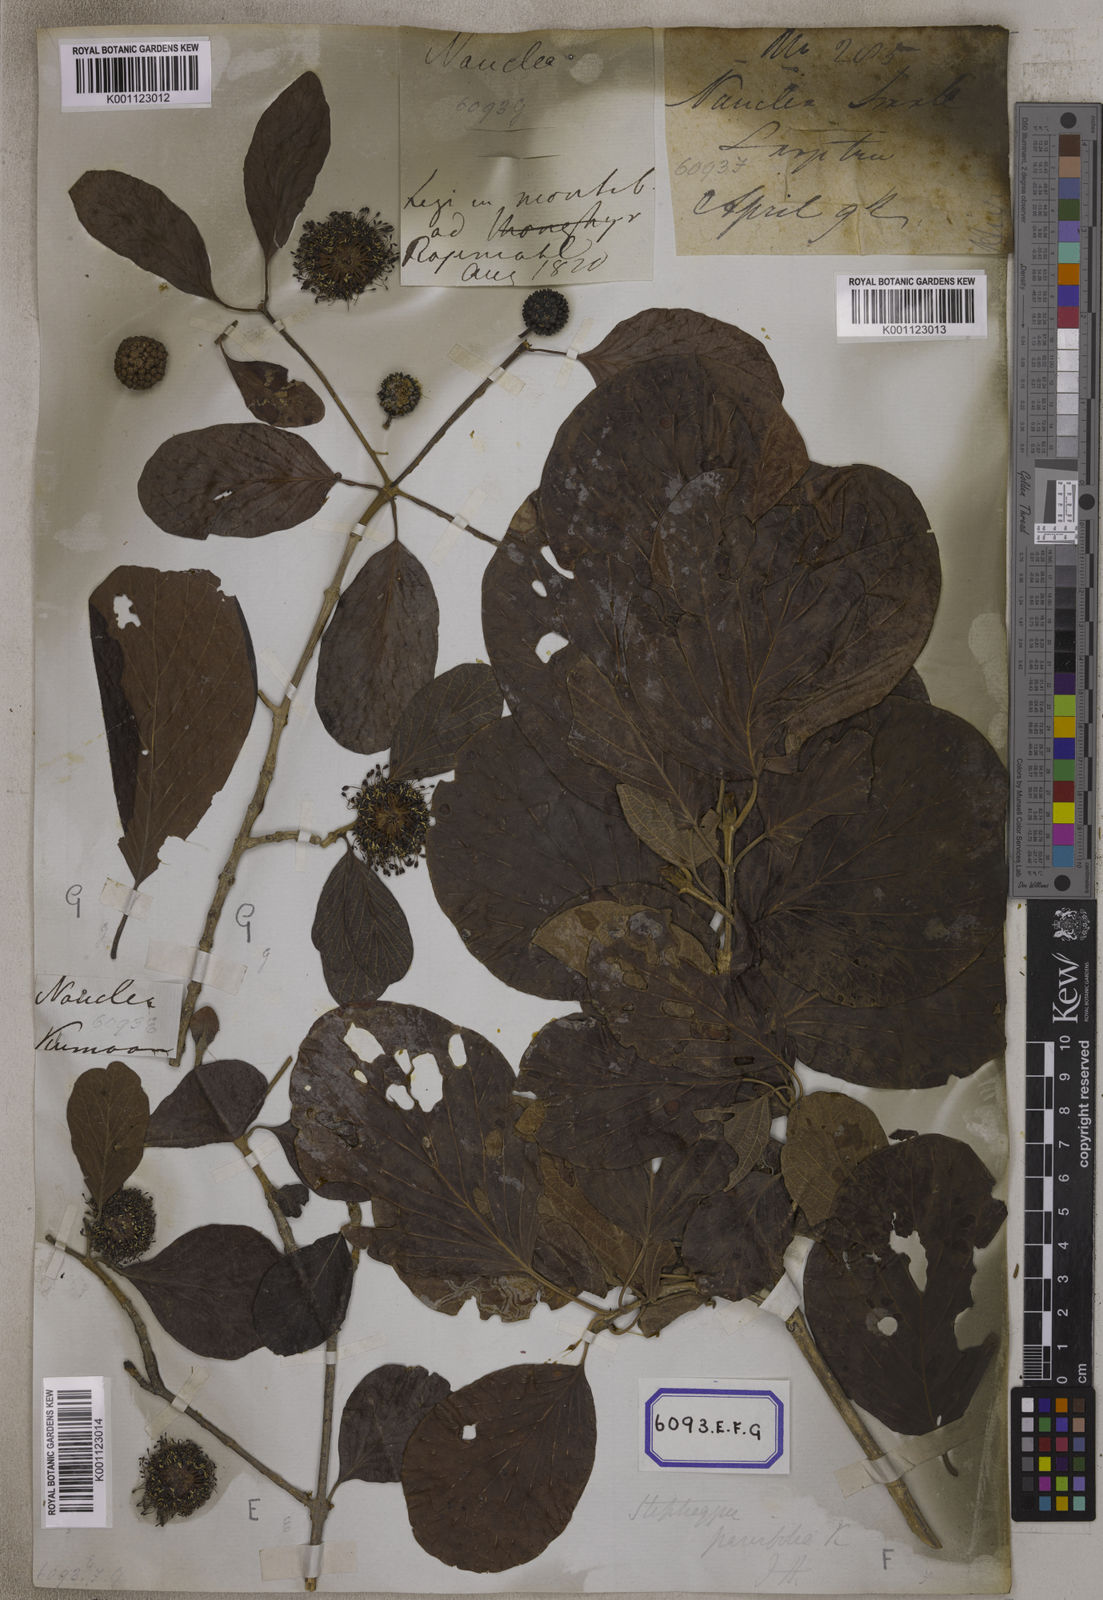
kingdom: Plantae
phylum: Tracheophyta
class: Magnoliopsida
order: Gentianales
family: Rubiaceae
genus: Nauclea
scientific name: Nauclea
